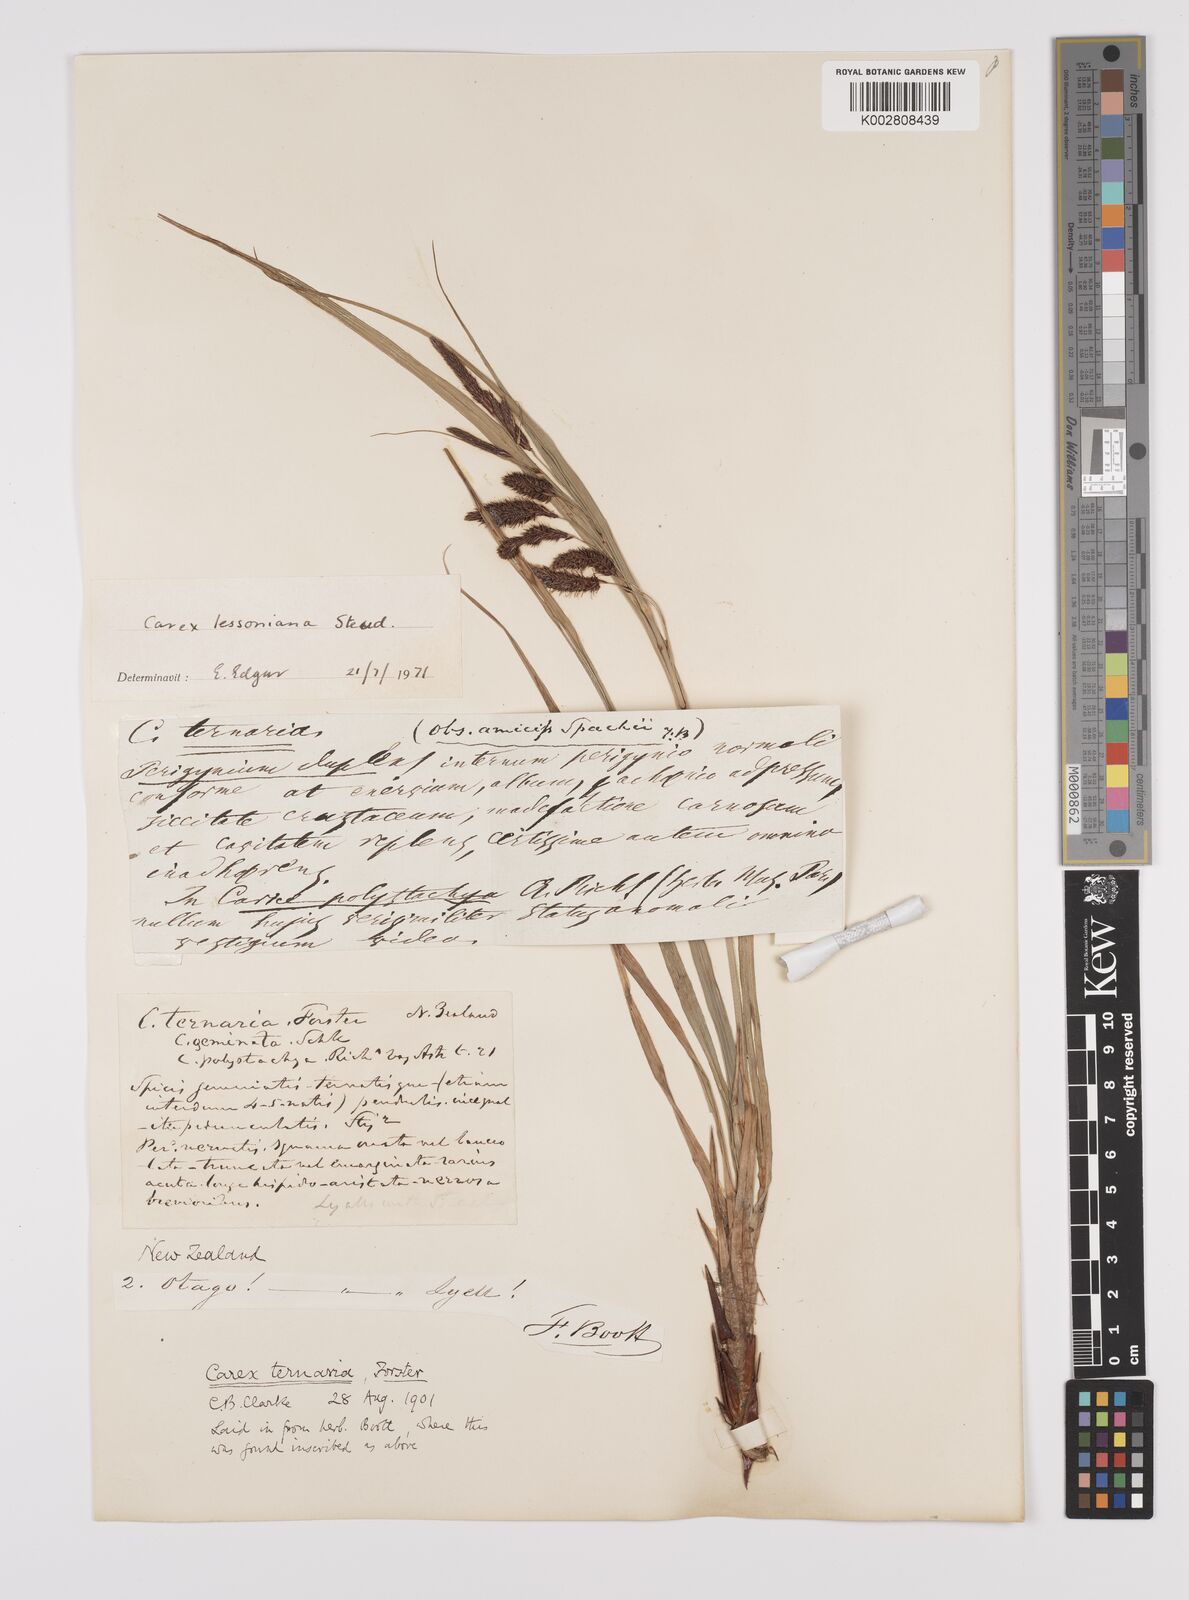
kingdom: Plantae
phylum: Tracheophyta
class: Liliopsida
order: Poales
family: Cyperaceae
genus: Carex
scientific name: Carex lessoniana
